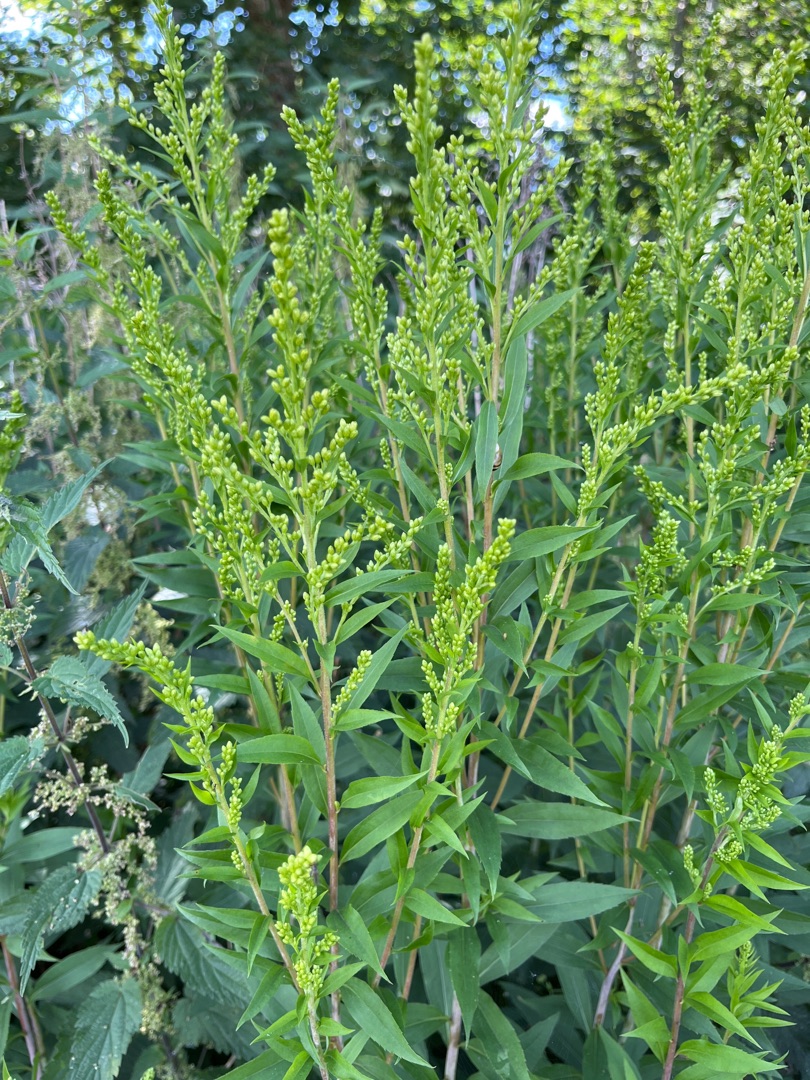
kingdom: Plantae
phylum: Tracheophyta
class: Magnoliopsida
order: Asterales
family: Asteraceae
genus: Solidago
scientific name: Solidago gigantea
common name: Sildig gyldenris
